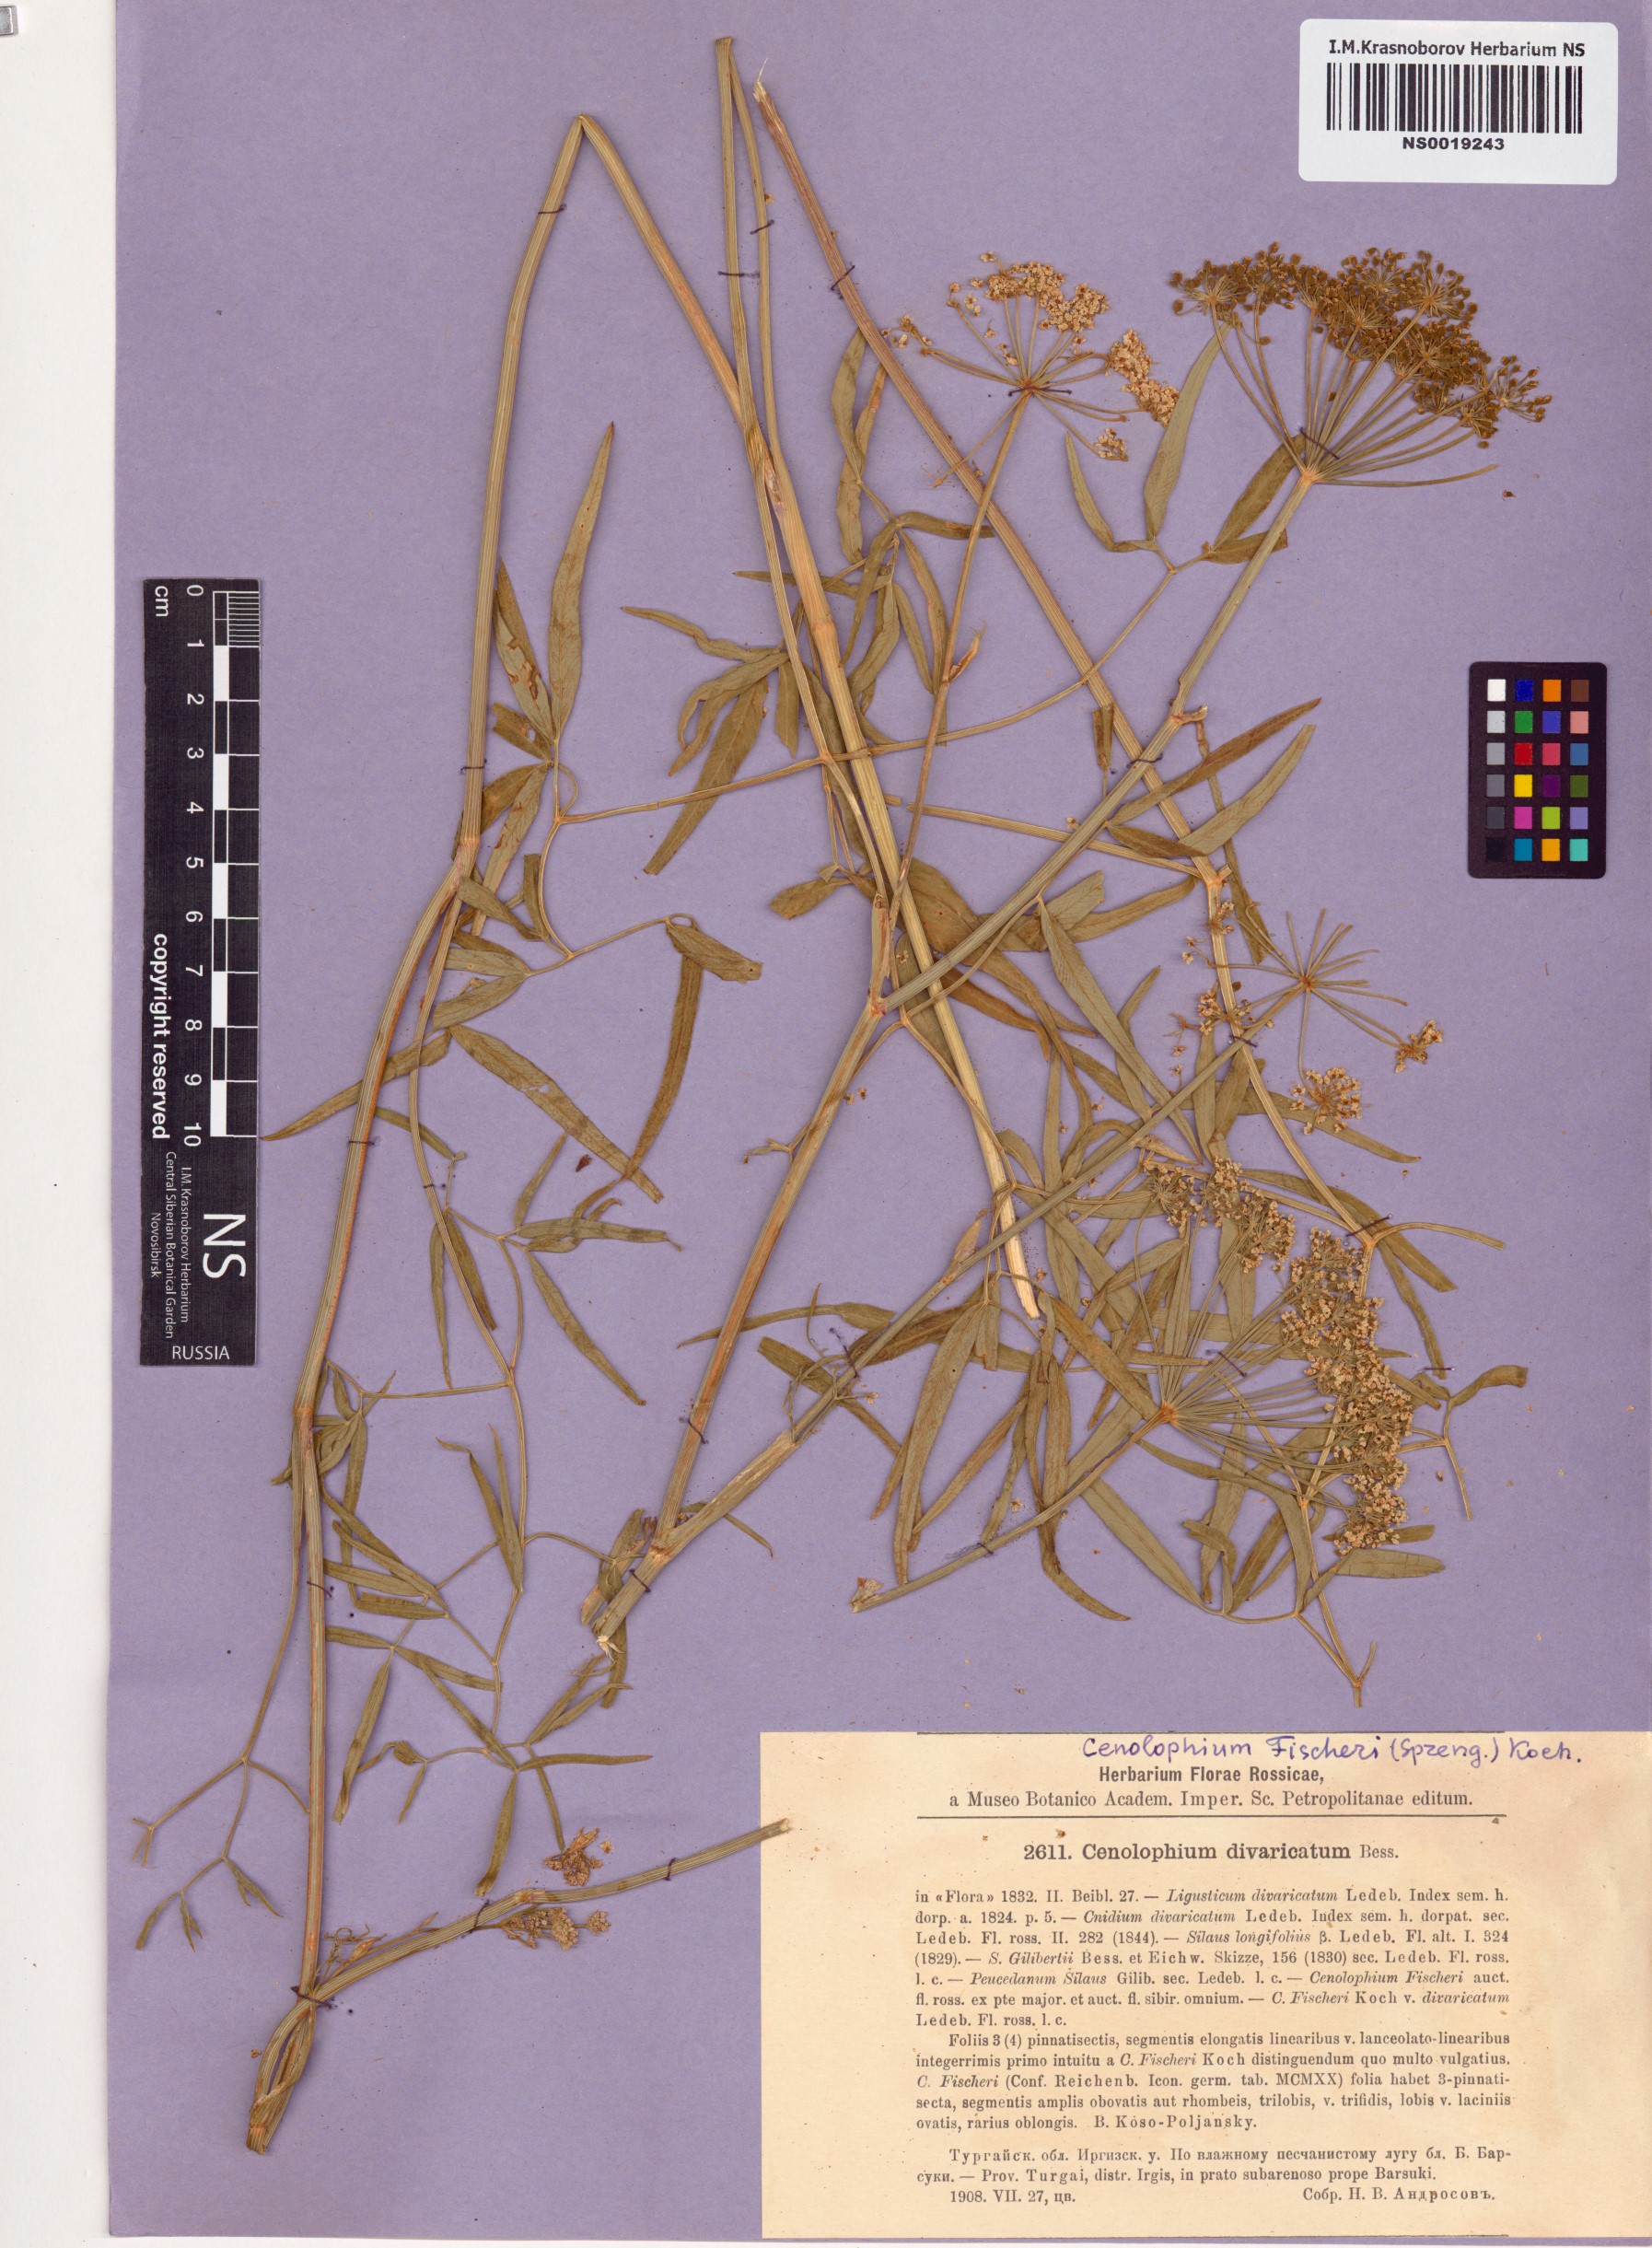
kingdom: Plantae
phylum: Tracheophyta
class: Magnoliopsida
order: Apiales
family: Apiaceae
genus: Cenolophium
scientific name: Cenolophium fischeri
